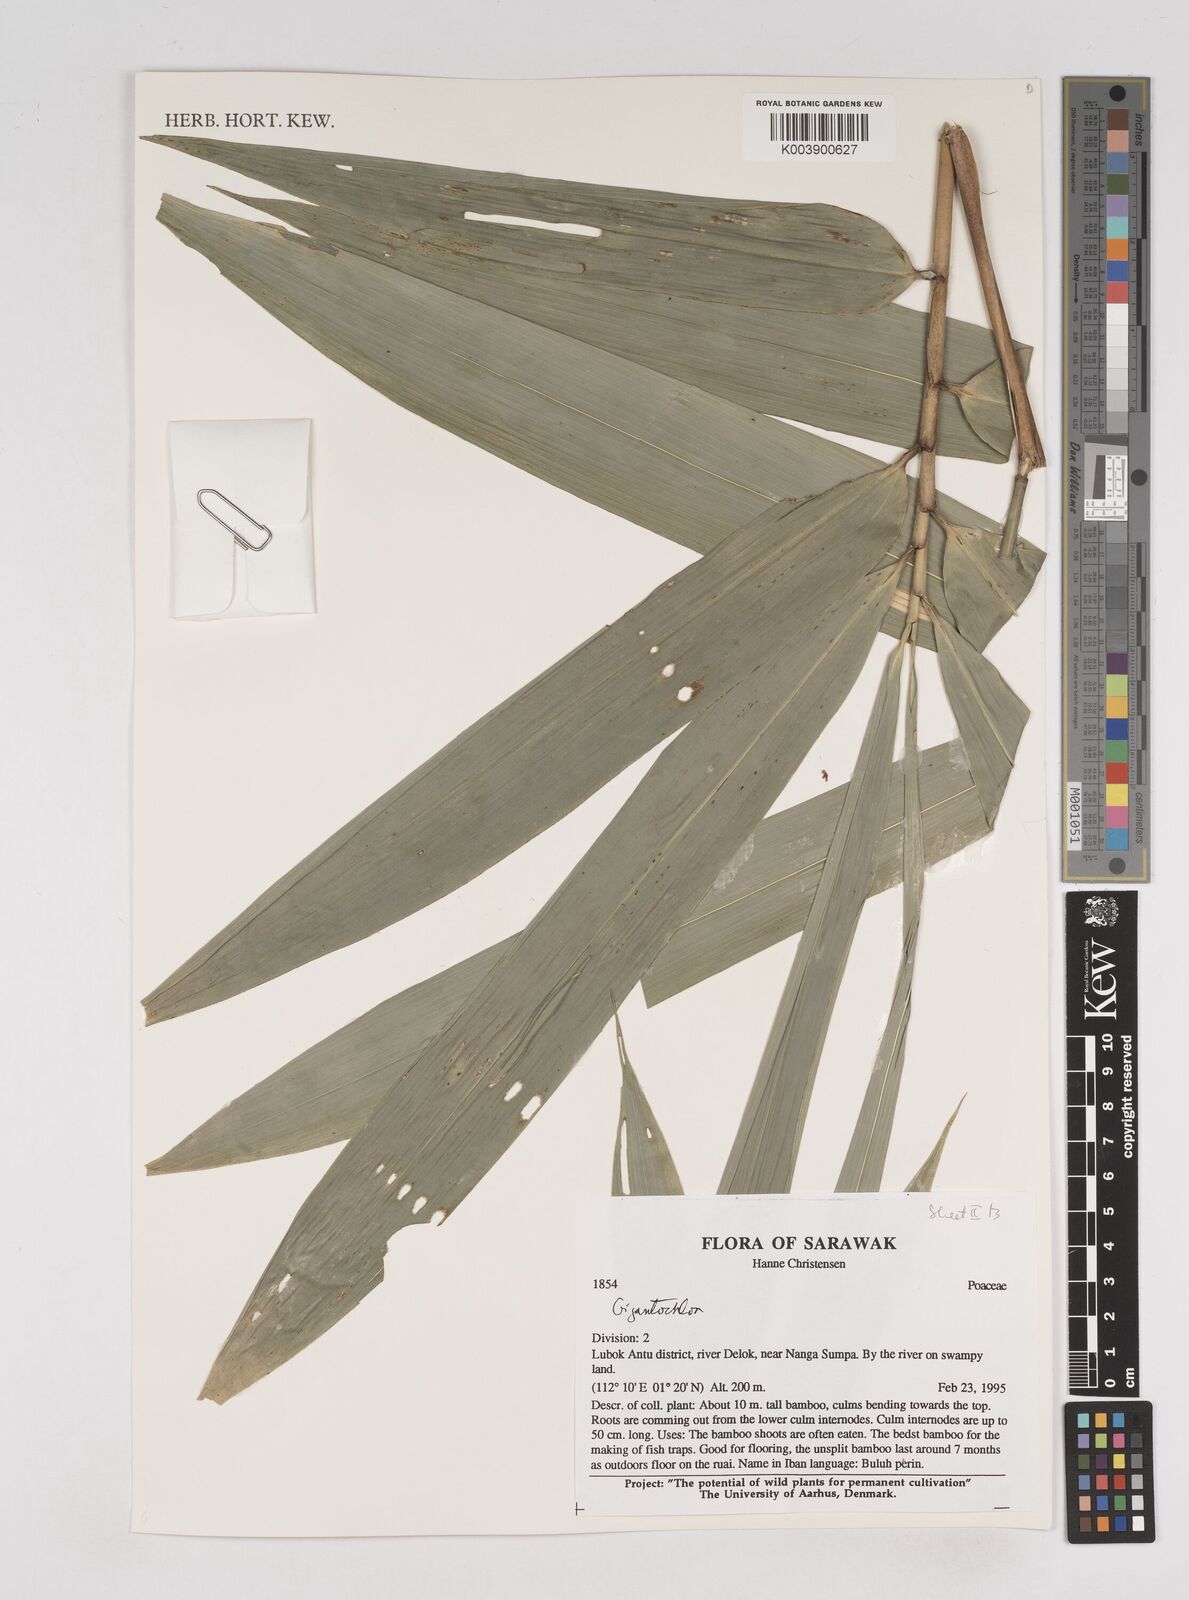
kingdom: Plantae
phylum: Tracheophyta
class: Liliopsida
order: Poales
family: Poaceae
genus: Gigantochloa
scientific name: Gigantochloa
